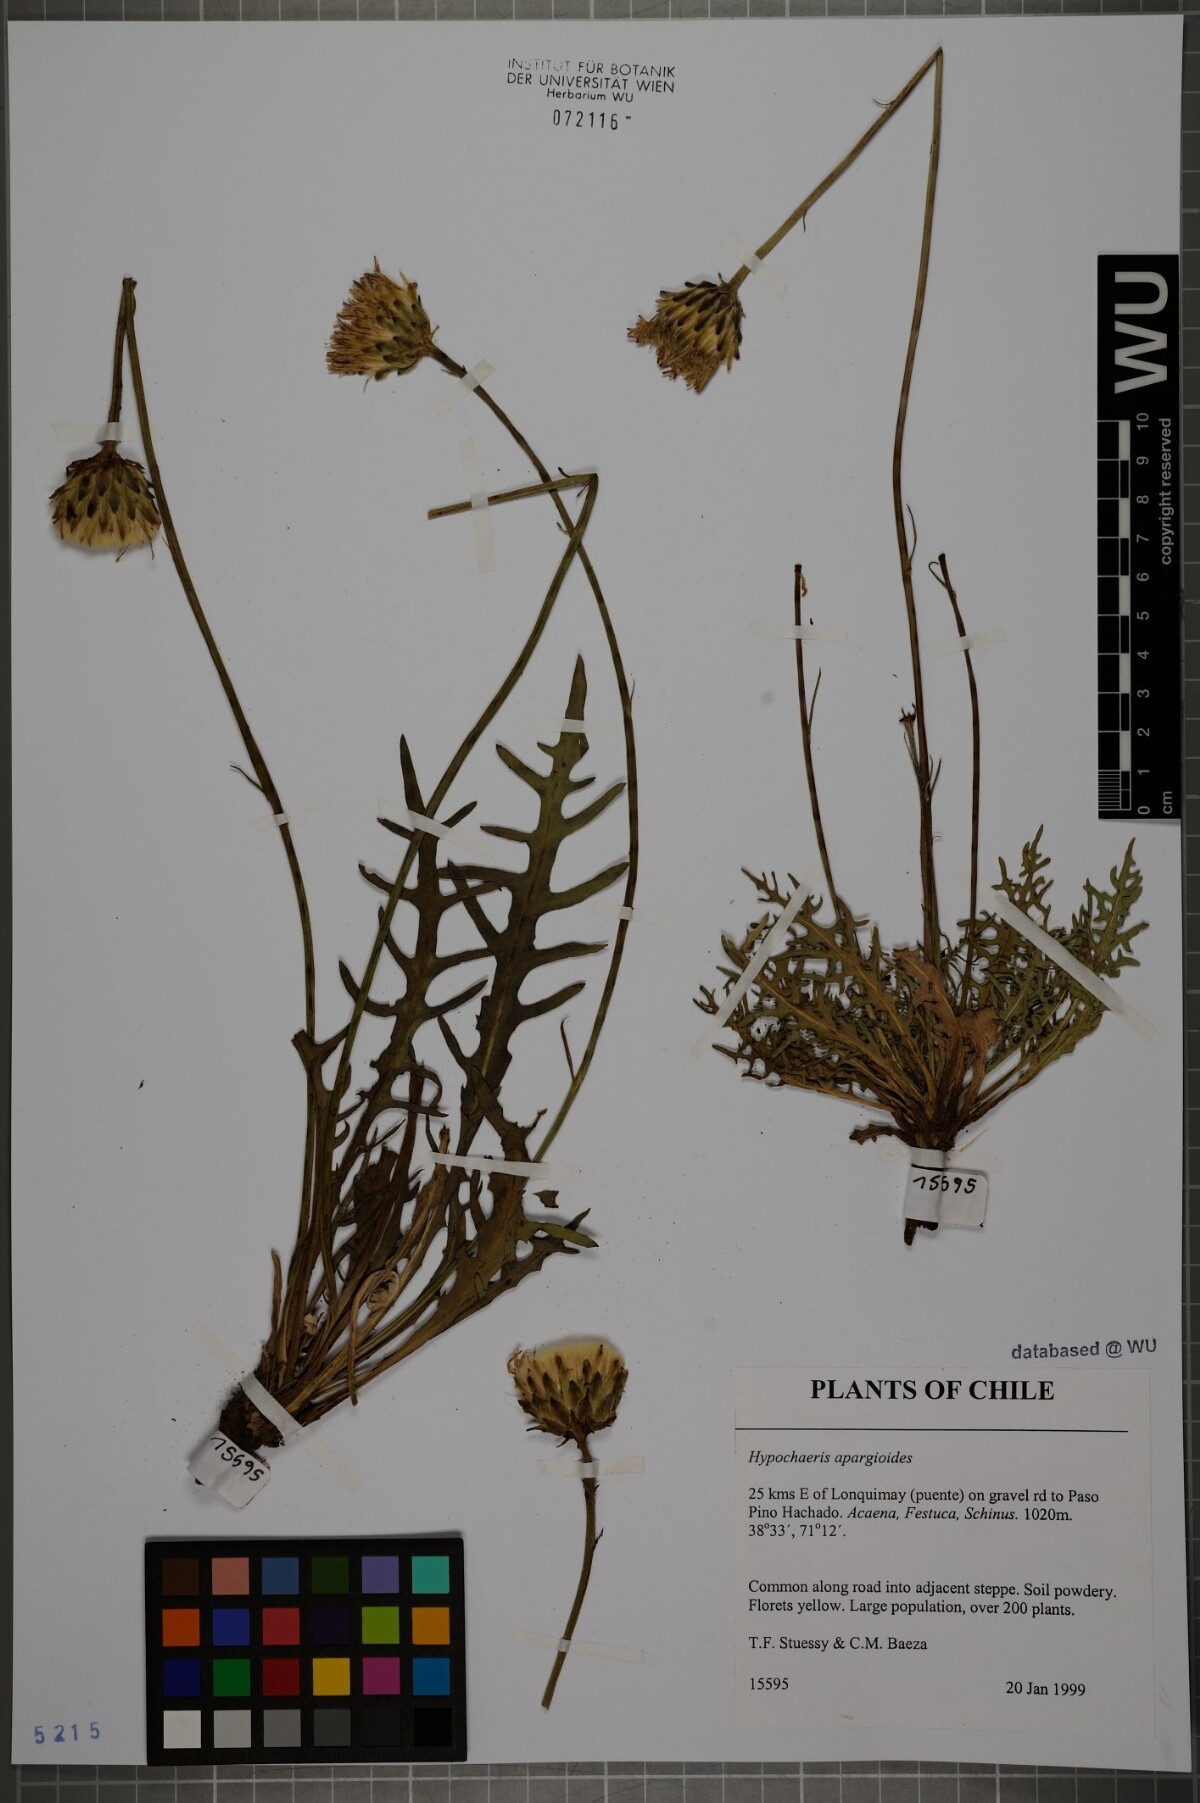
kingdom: Plantae
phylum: Tracheophyta
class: Magnoliopsida
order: Asterales
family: Asteraceae
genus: Hypochaeris
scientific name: Hypochaeris apargioides
